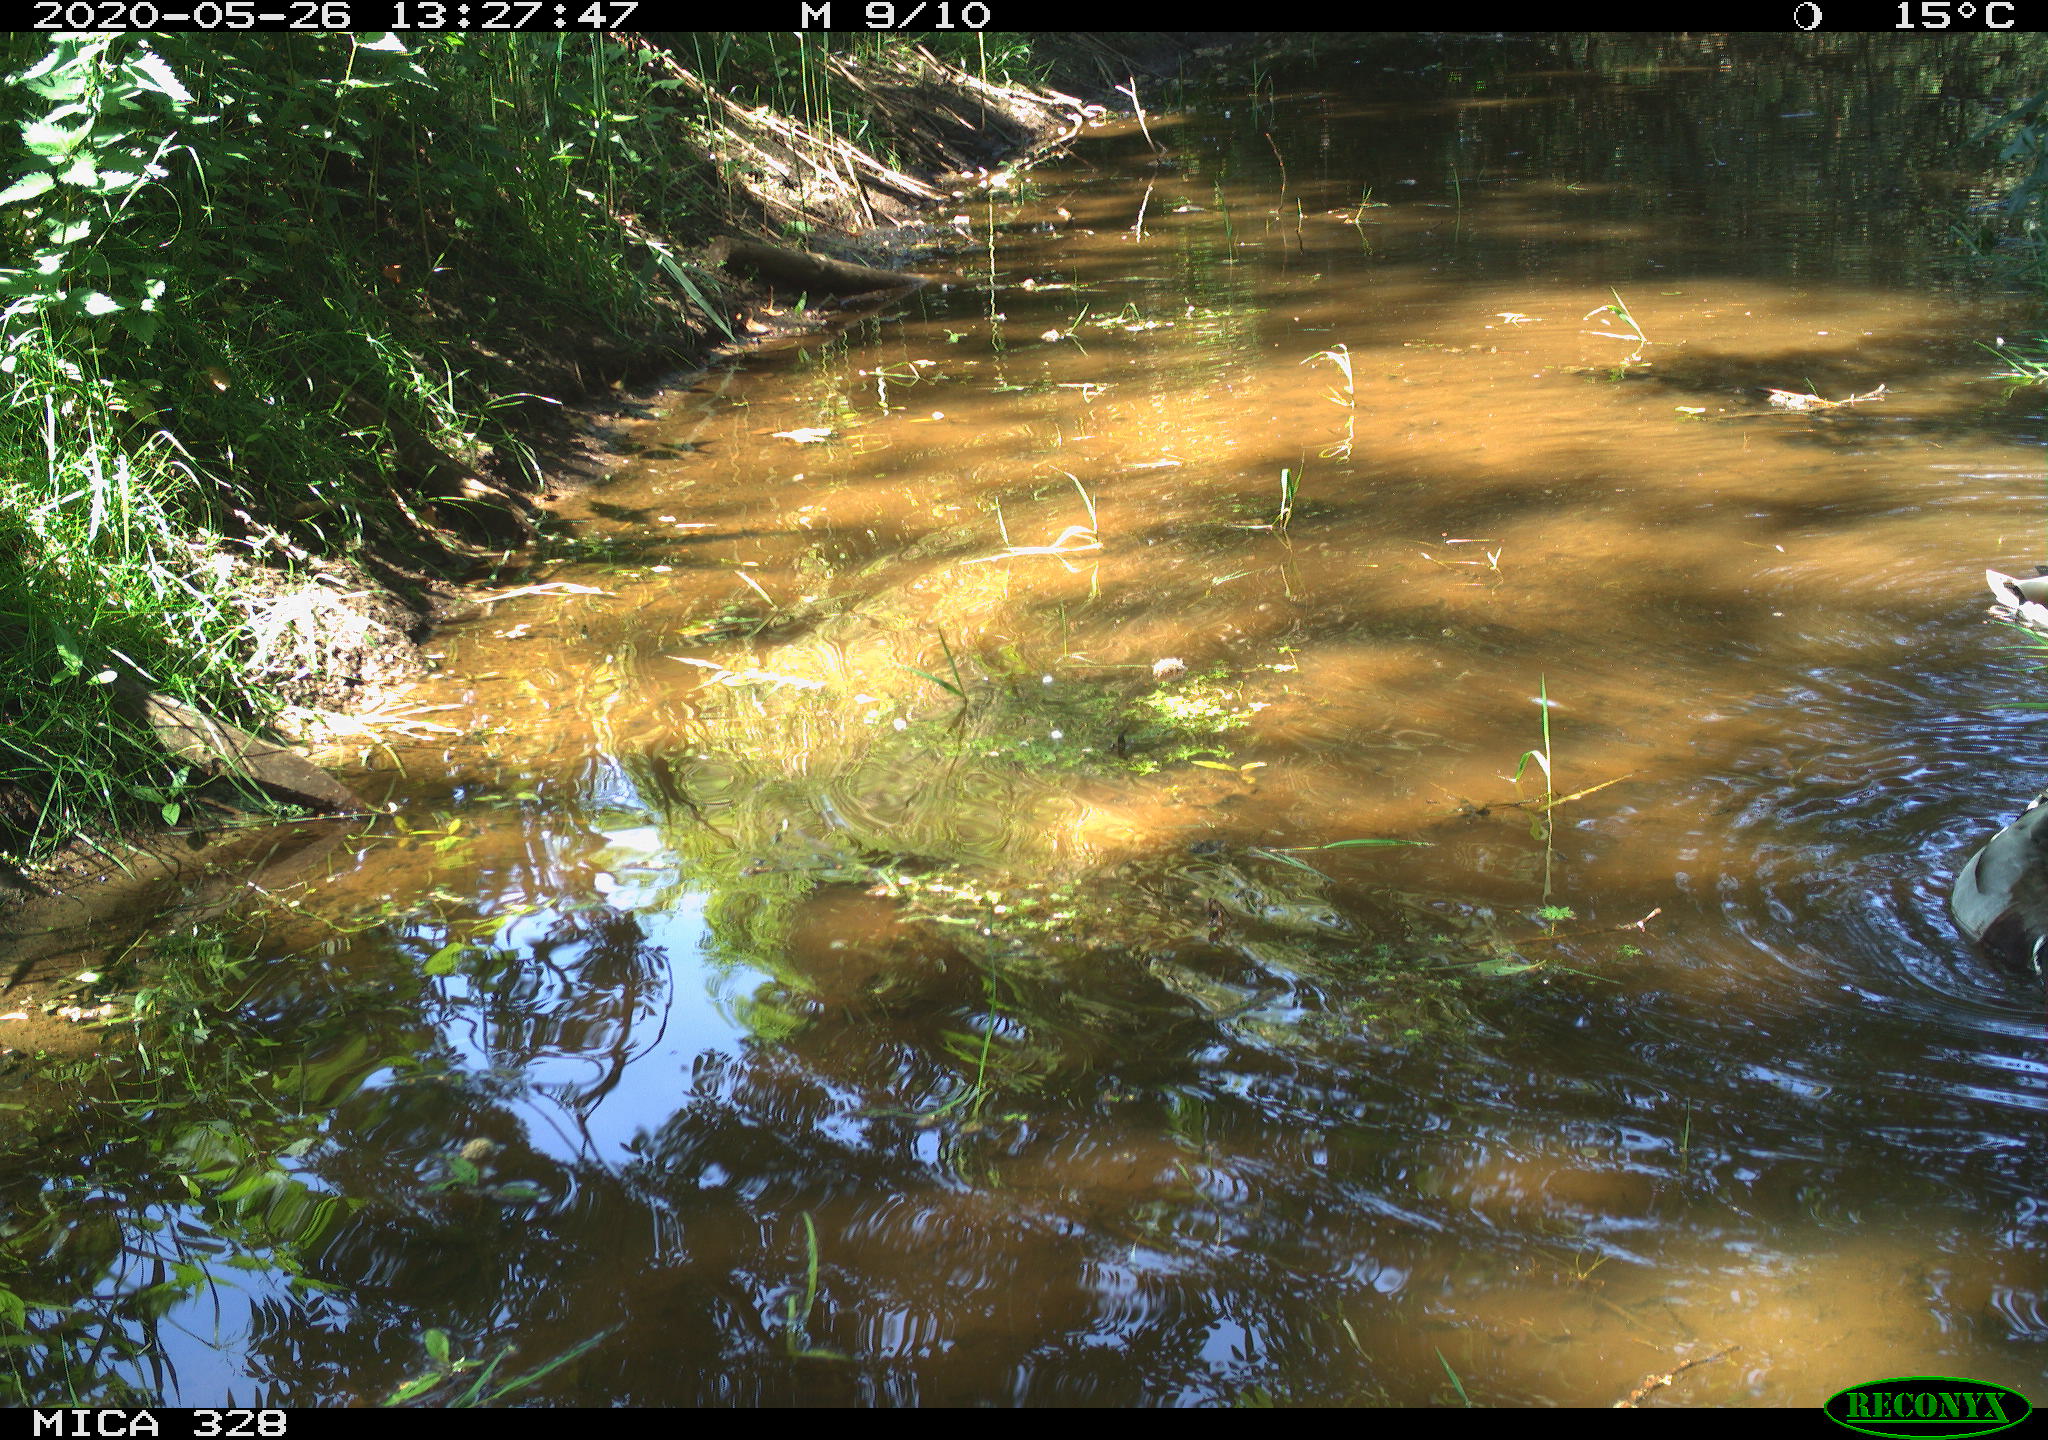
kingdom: Animalia
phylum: Chordata
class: Aves
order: Anseriformes
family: Anatidae
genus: Anas
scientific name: Anas platyrhynchos
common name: Mallard
